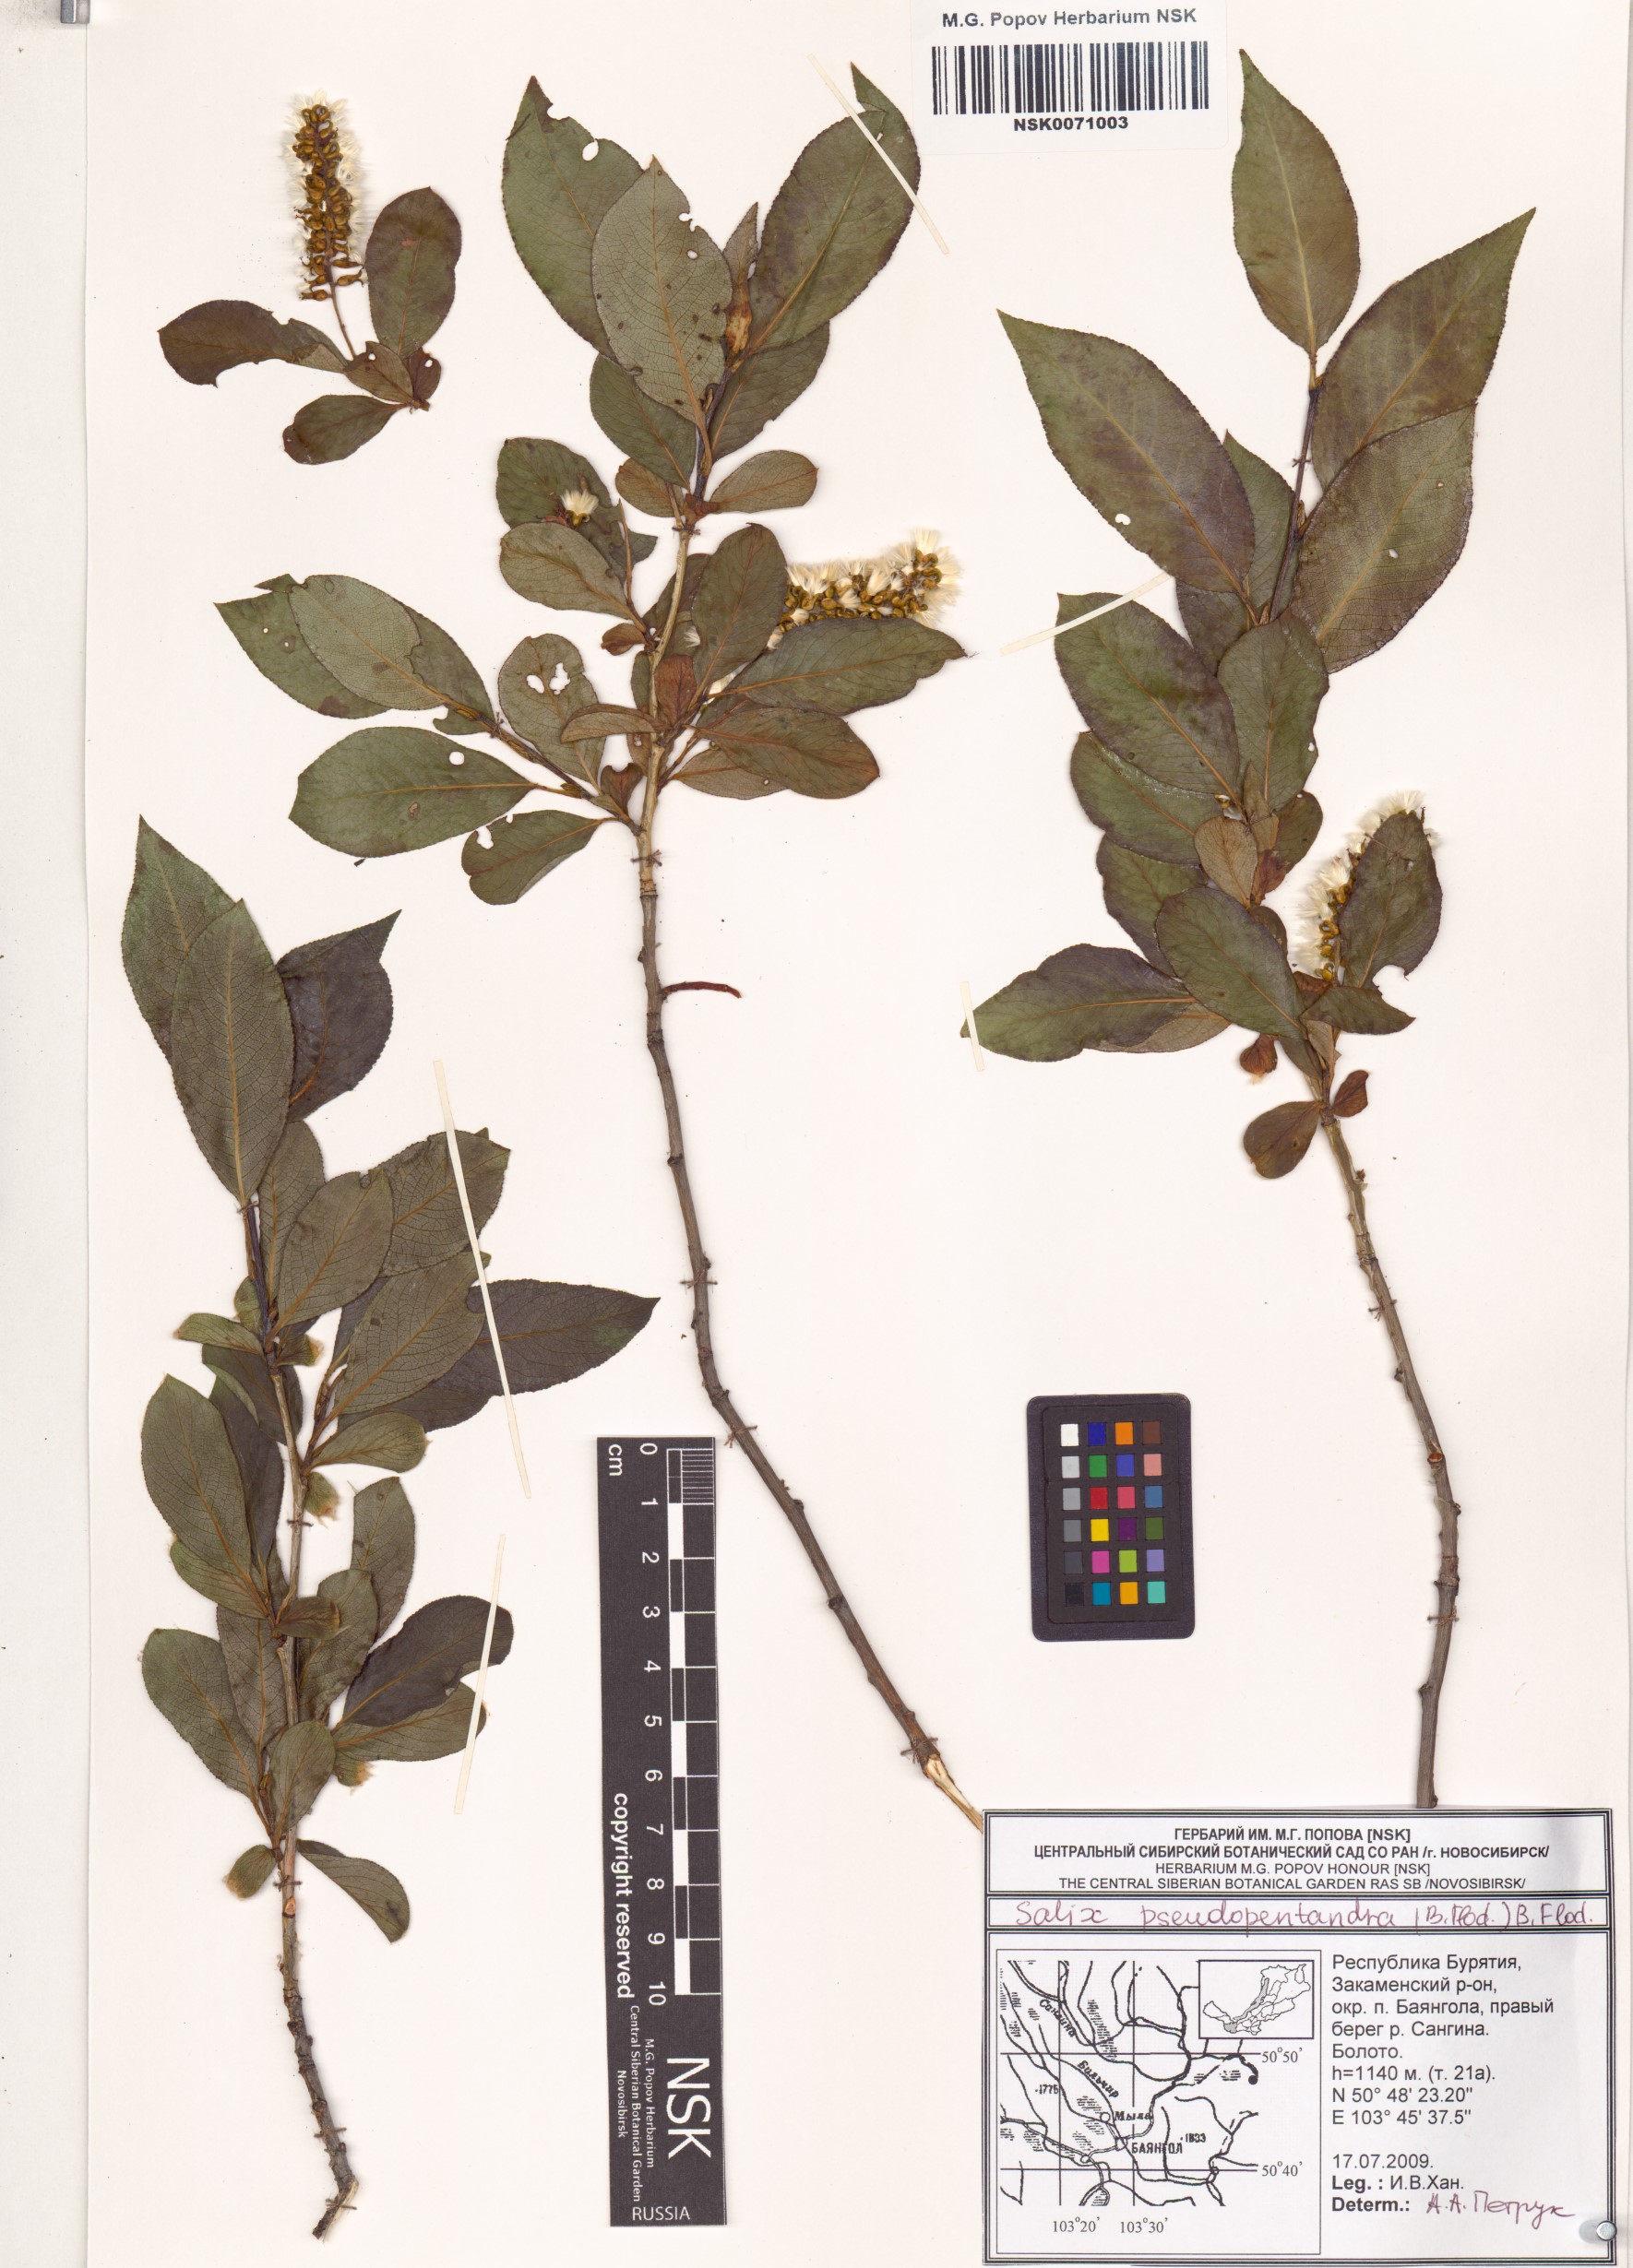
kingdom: Plantae
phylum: Tracheophyta
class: Magnoliopsida
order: Malpighiales
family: Salicaceae
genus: Salix
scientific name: Salix pseudopentandra
